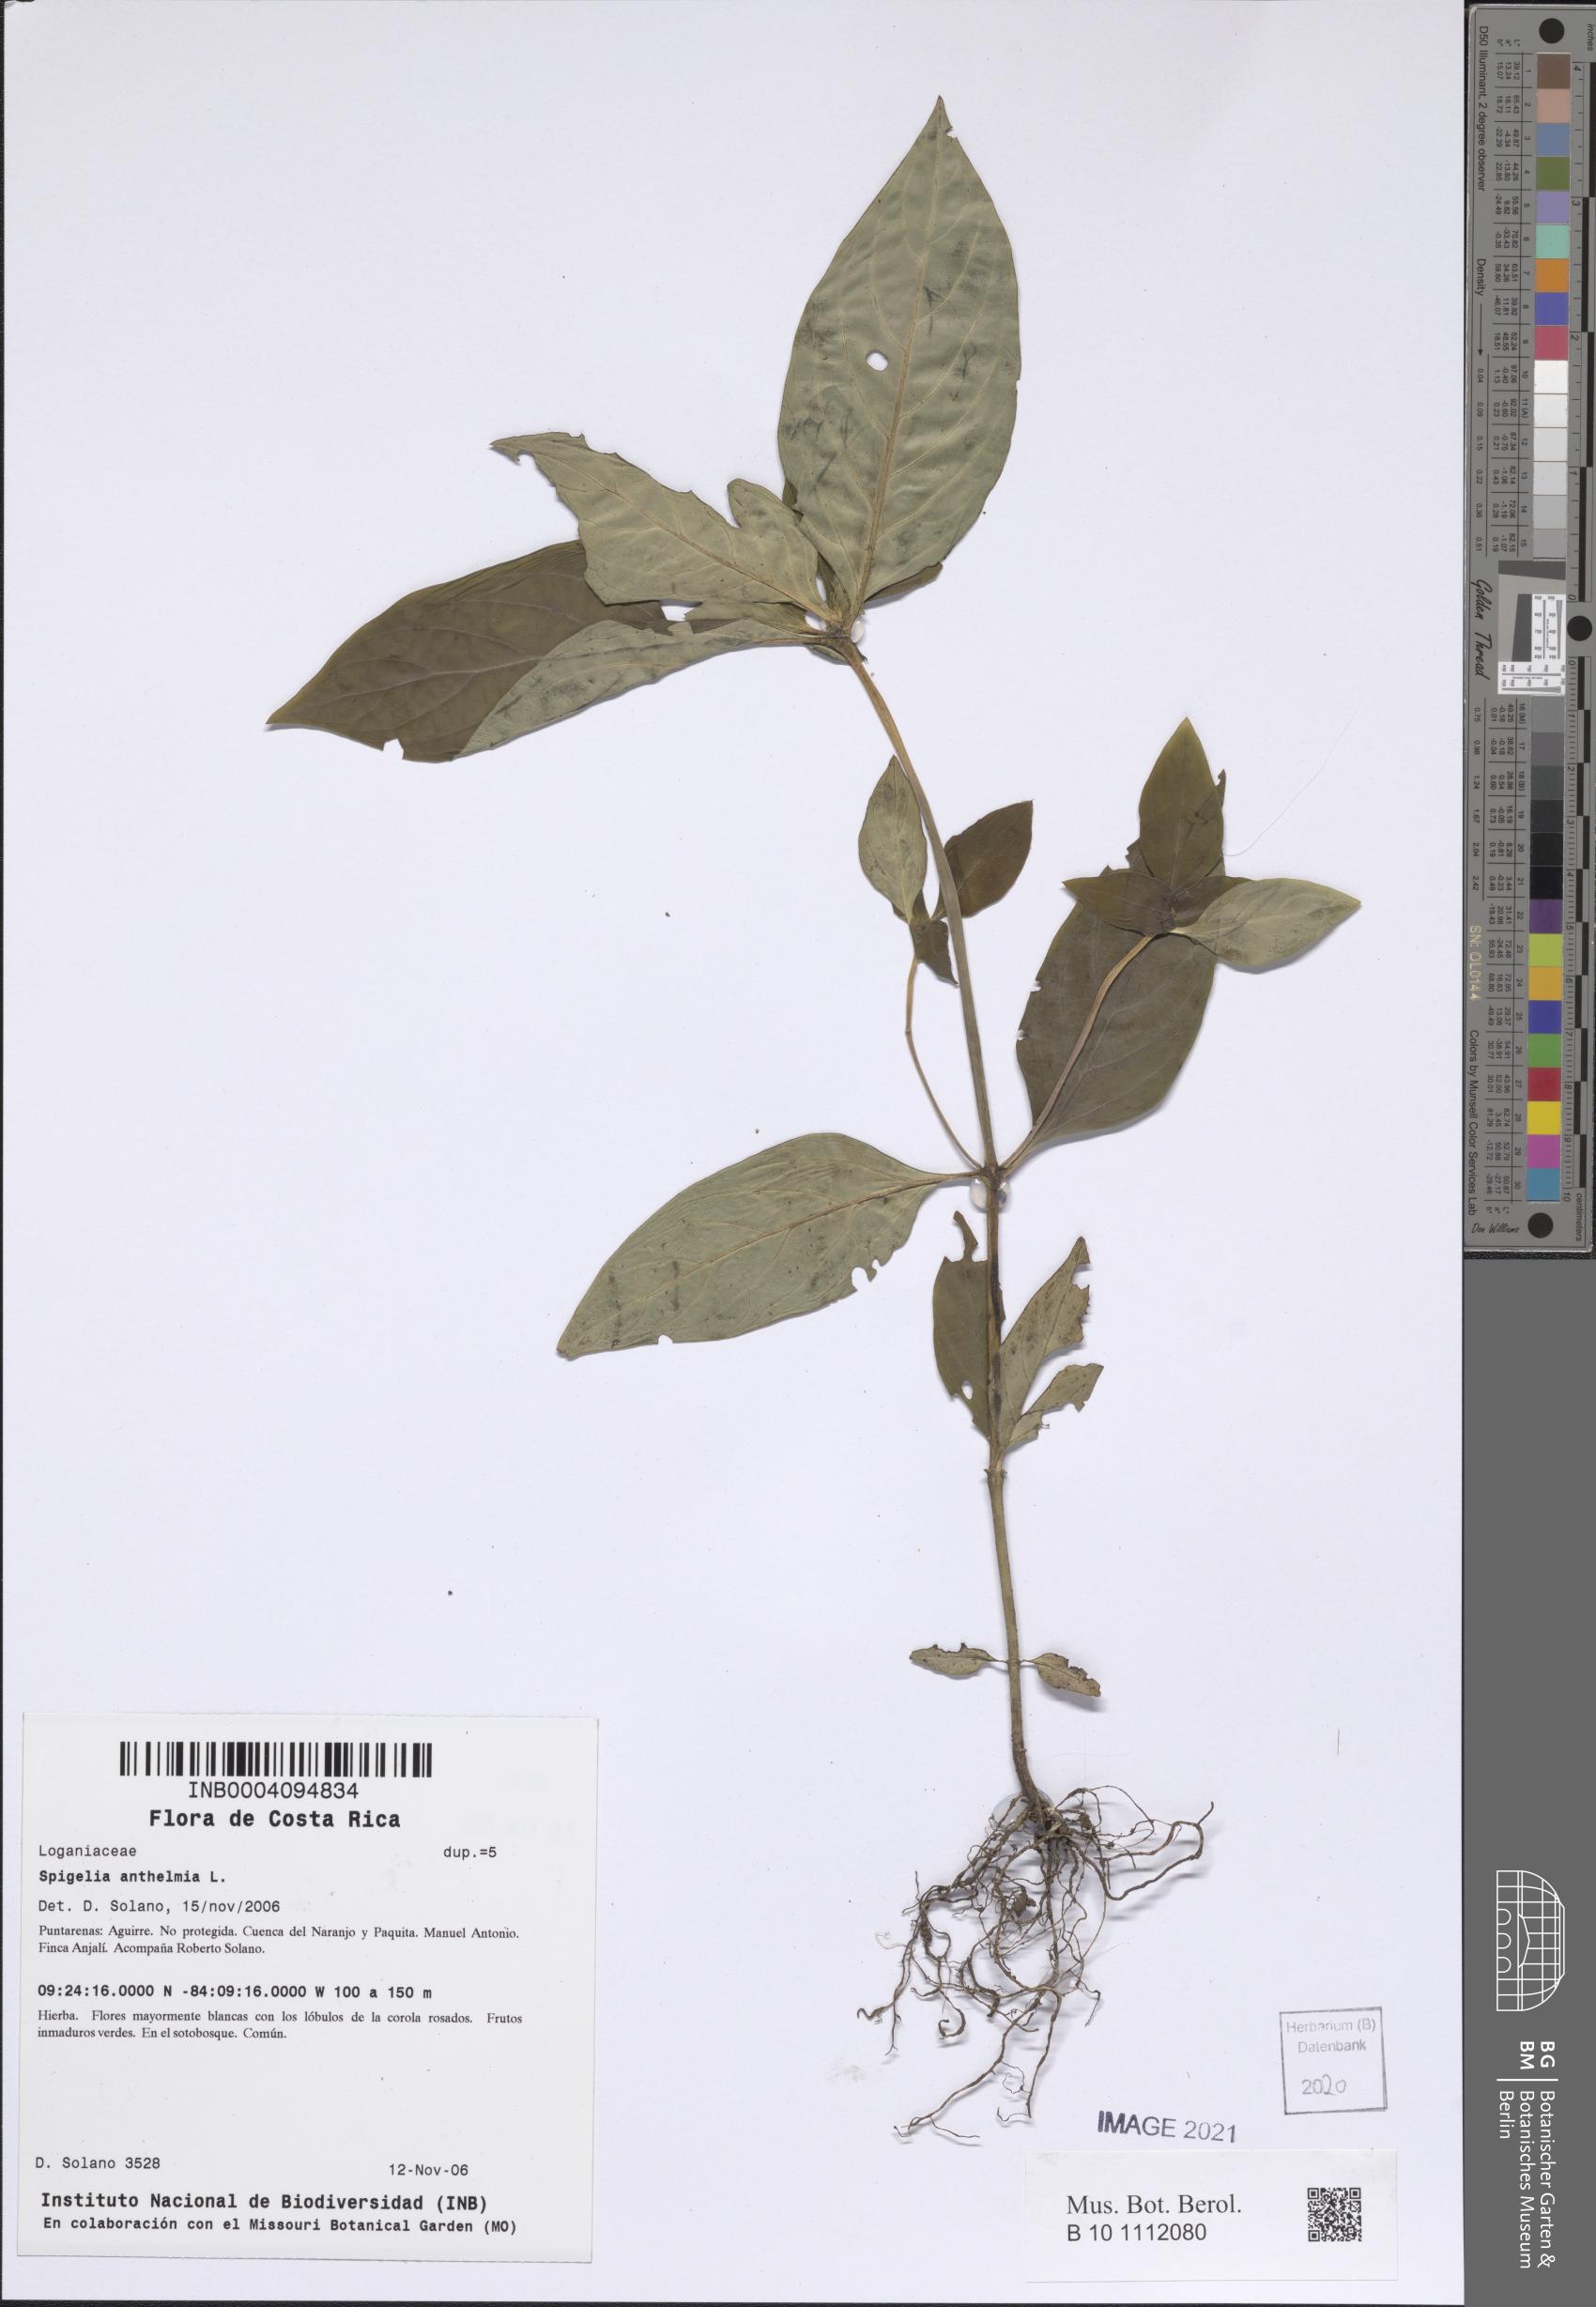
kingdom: Plantae
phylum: Tracheophyta
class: Magnoliopsida
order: Gentianales
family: Loganiaceae
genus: Spigelia
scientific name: Spigelia anthelmia
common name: West indian-pink
